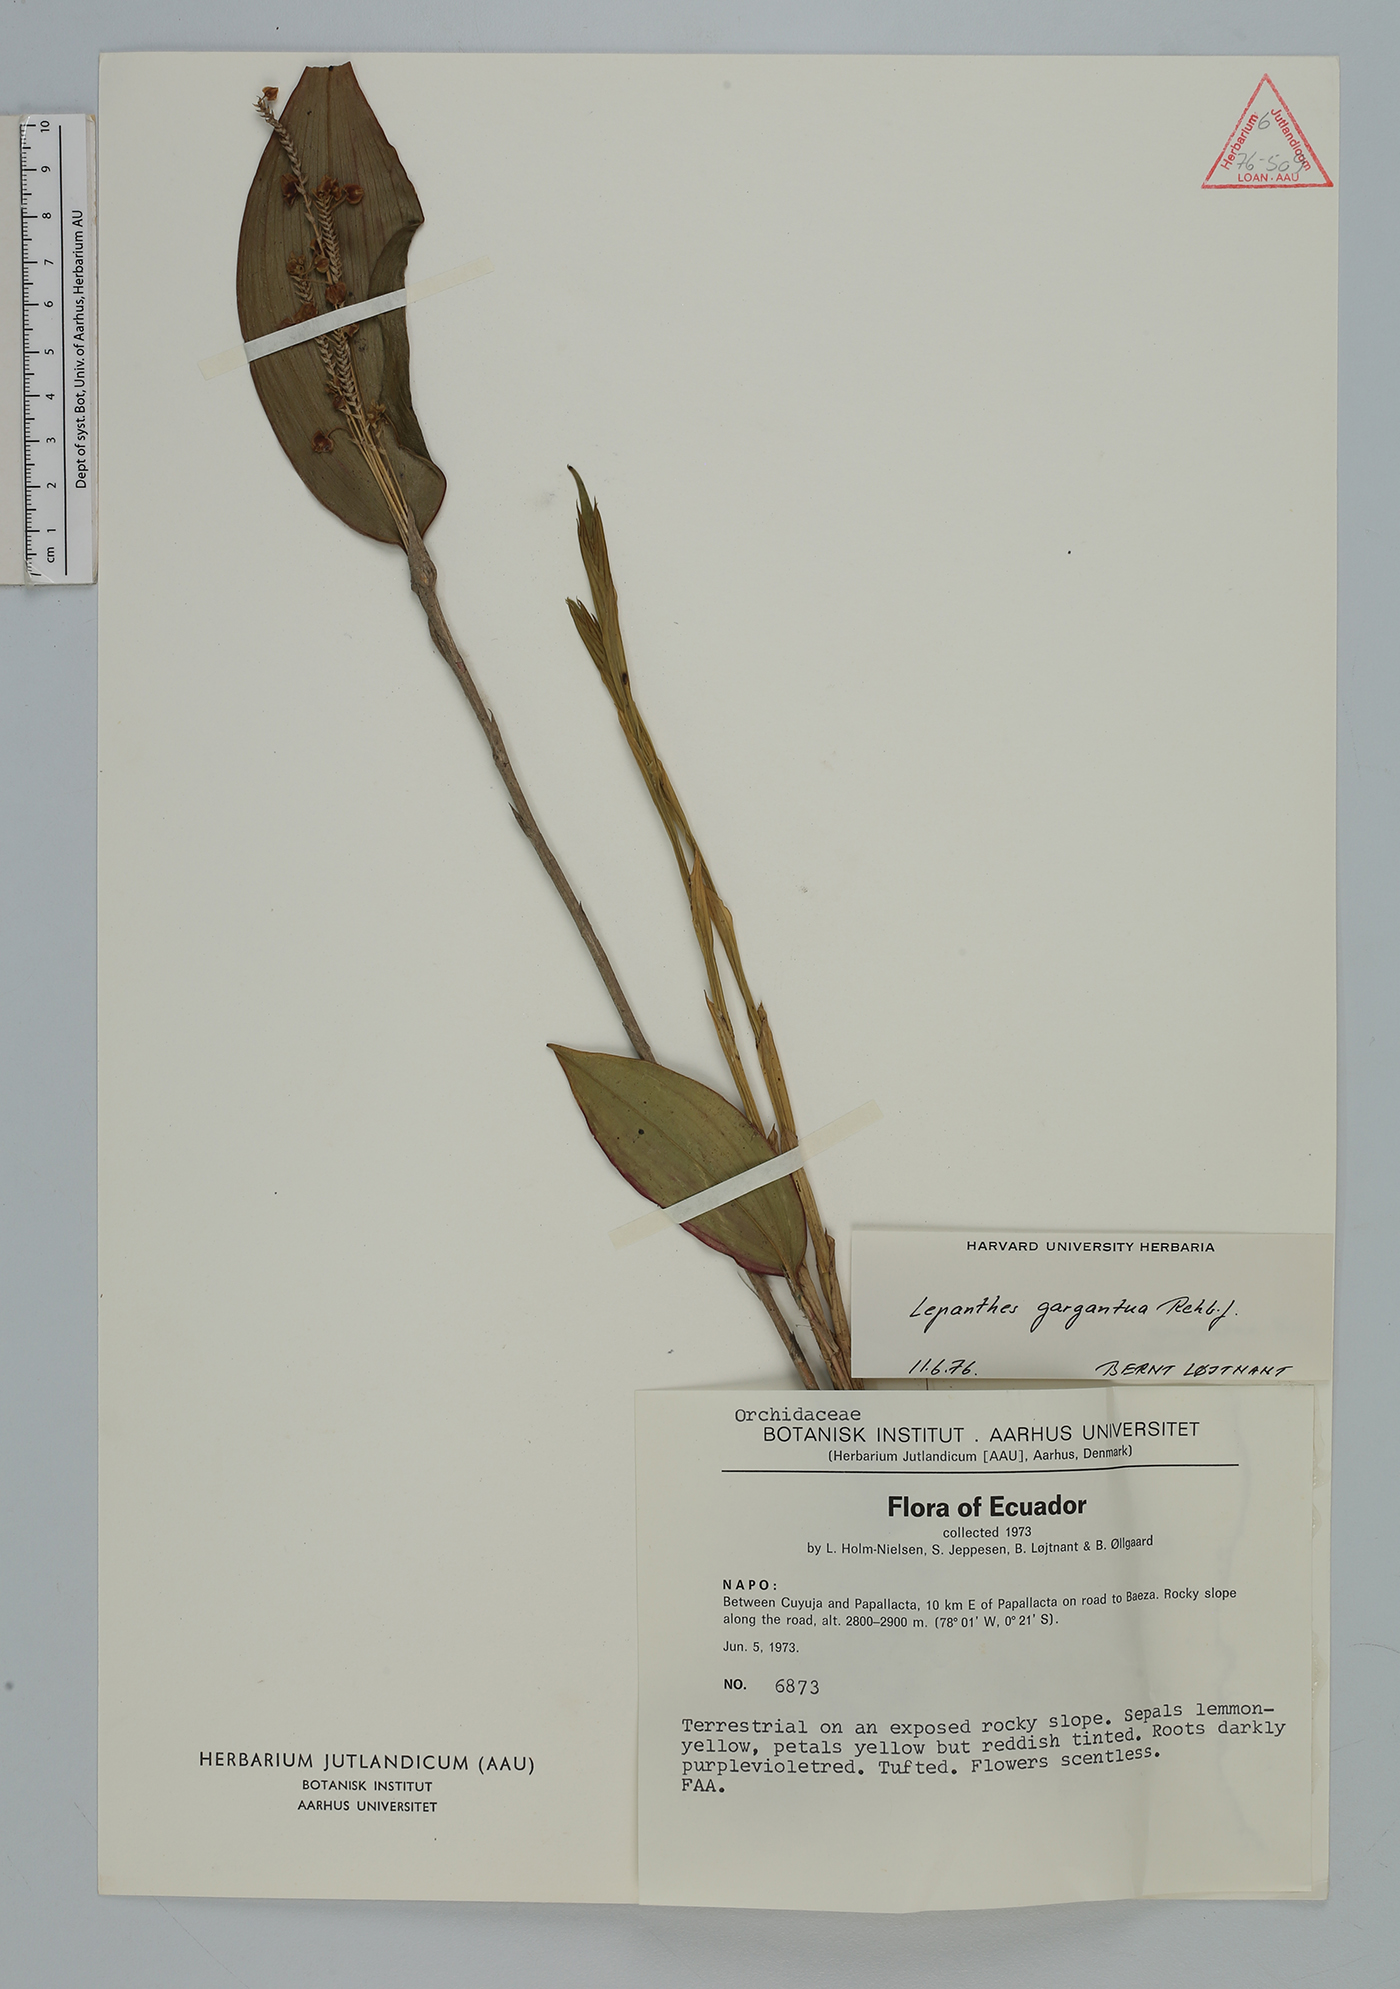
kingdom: Plantae
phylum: Tracheophyta
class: Liliopsida
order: Asparagales
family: Orchidaceae
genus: Lepanthes
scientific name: Lepanthes gargantua
